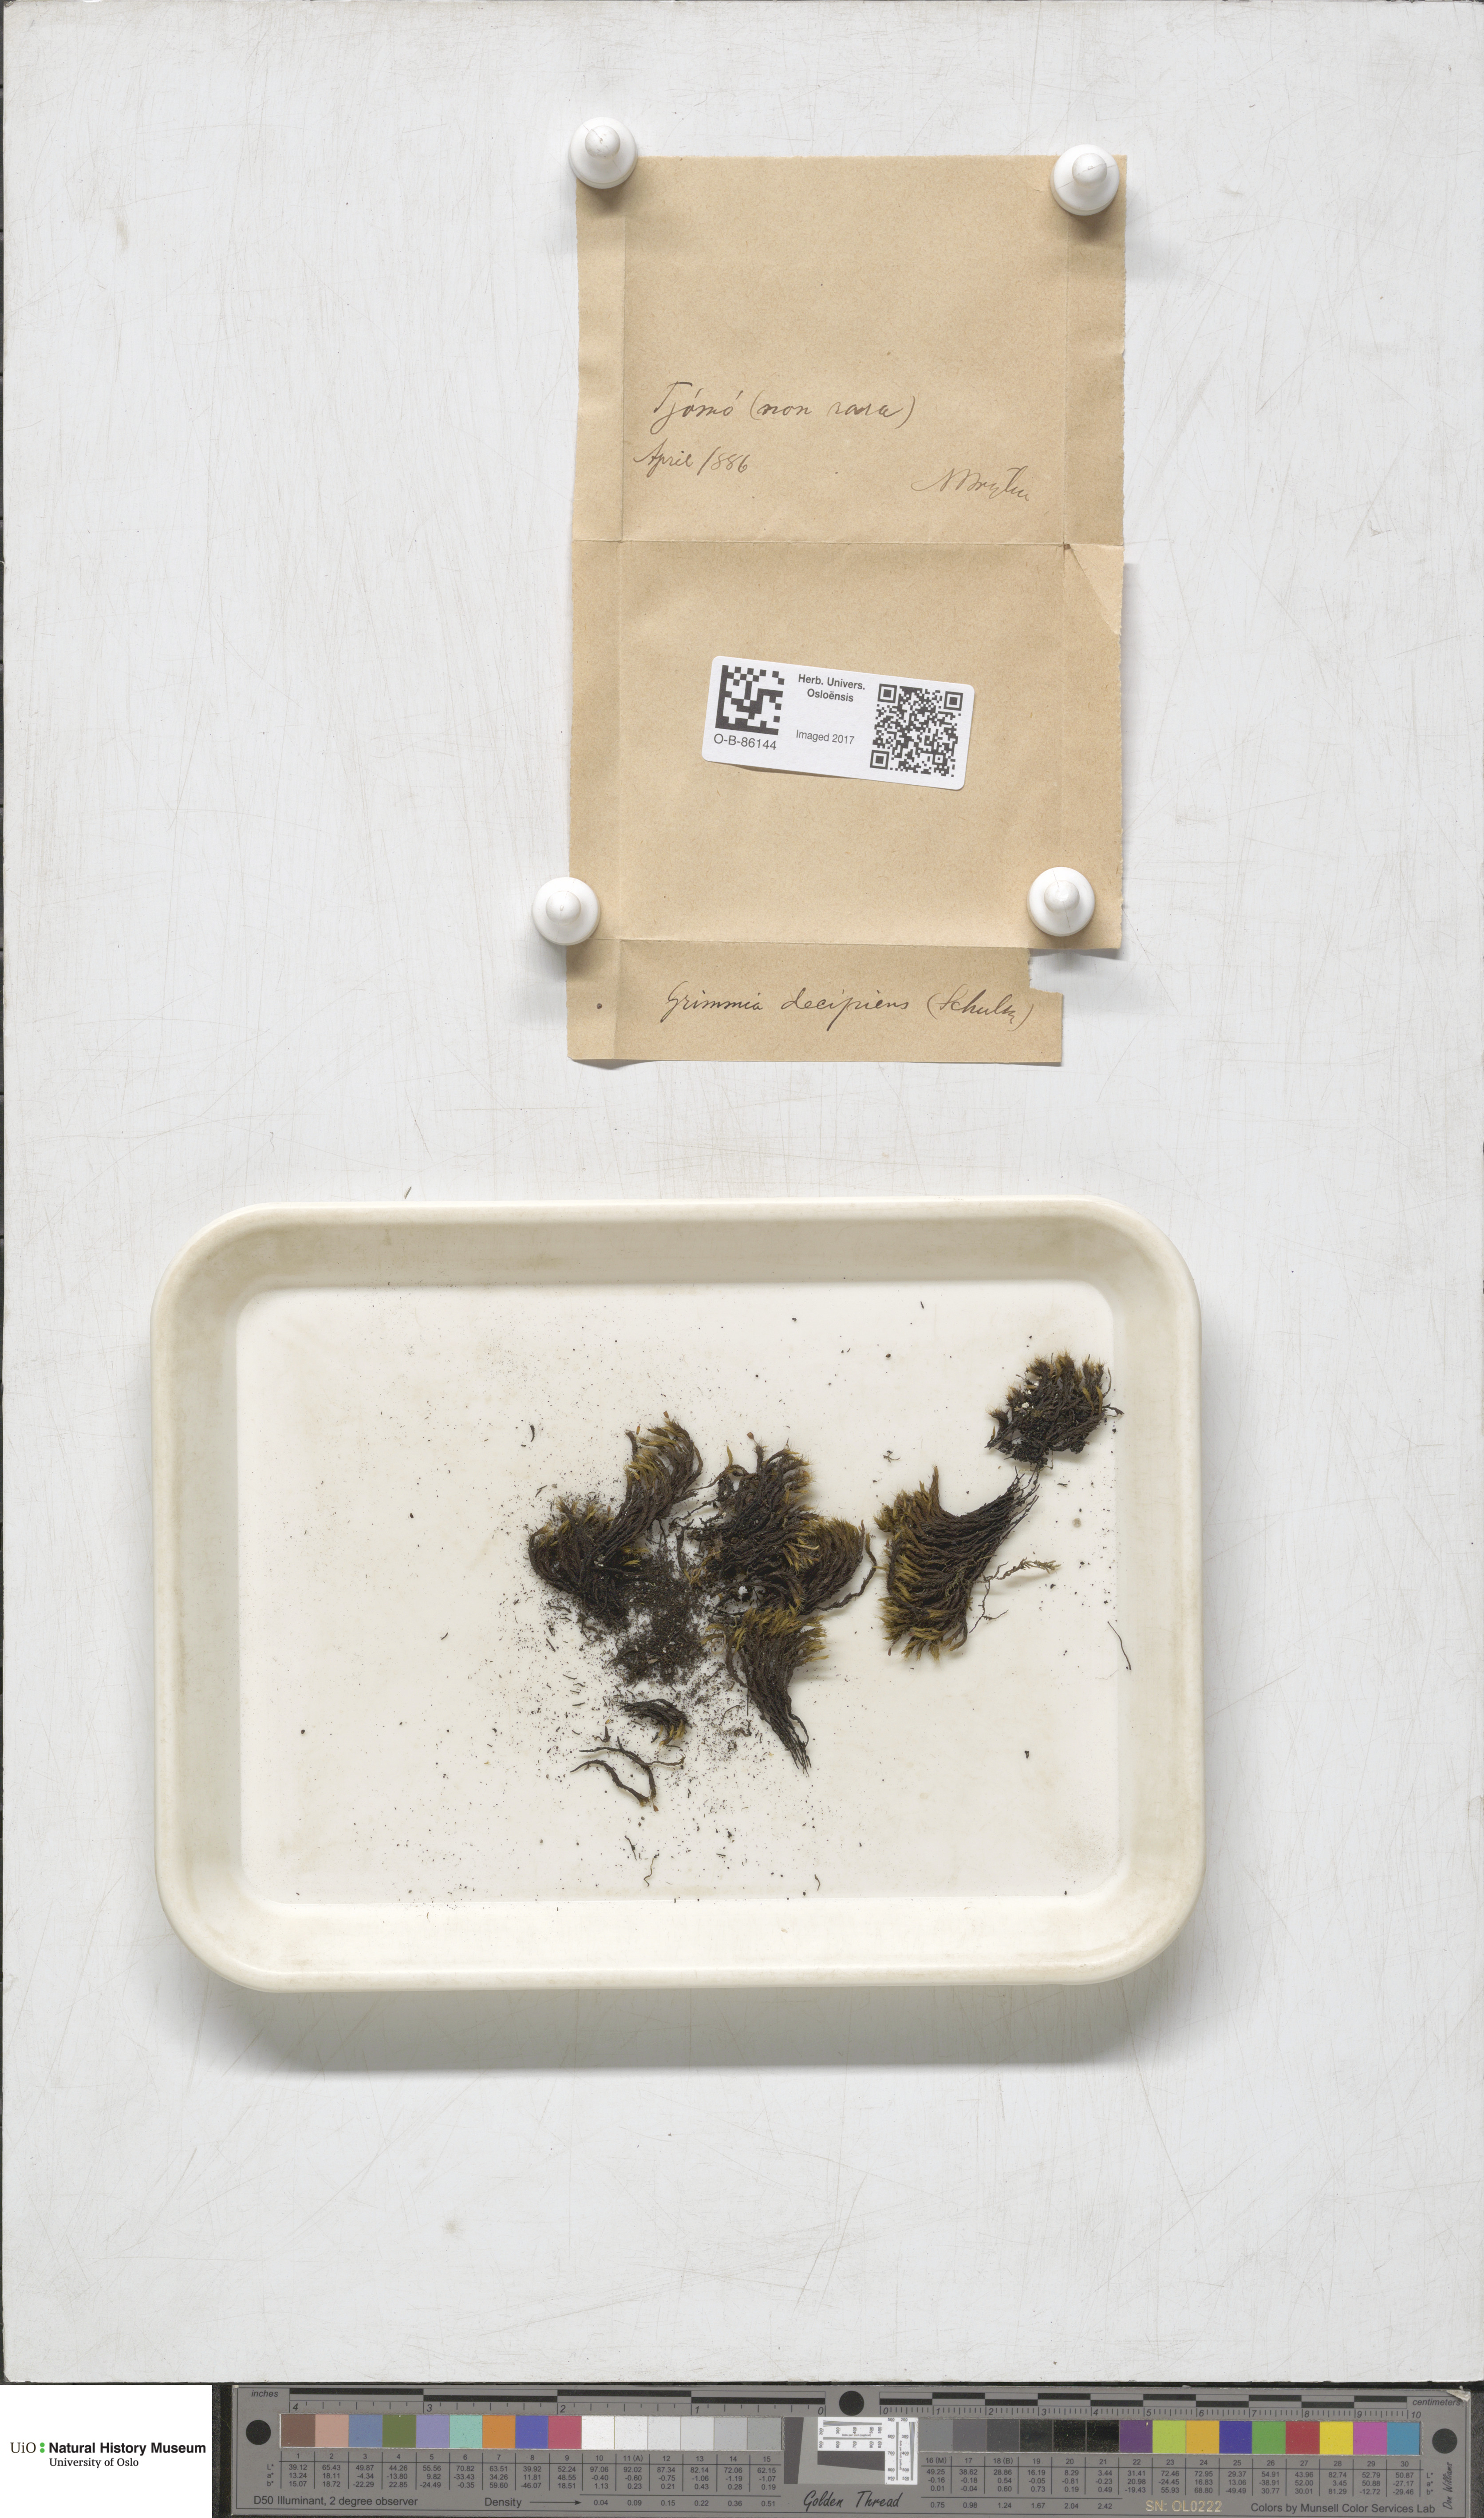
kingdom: Plantae
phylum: Bryophyta
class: Bryopsida
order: Grimmiales
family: Grimmiaceae
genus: Grimmia
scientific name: Grimmia decipiens
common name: Great grimmia
